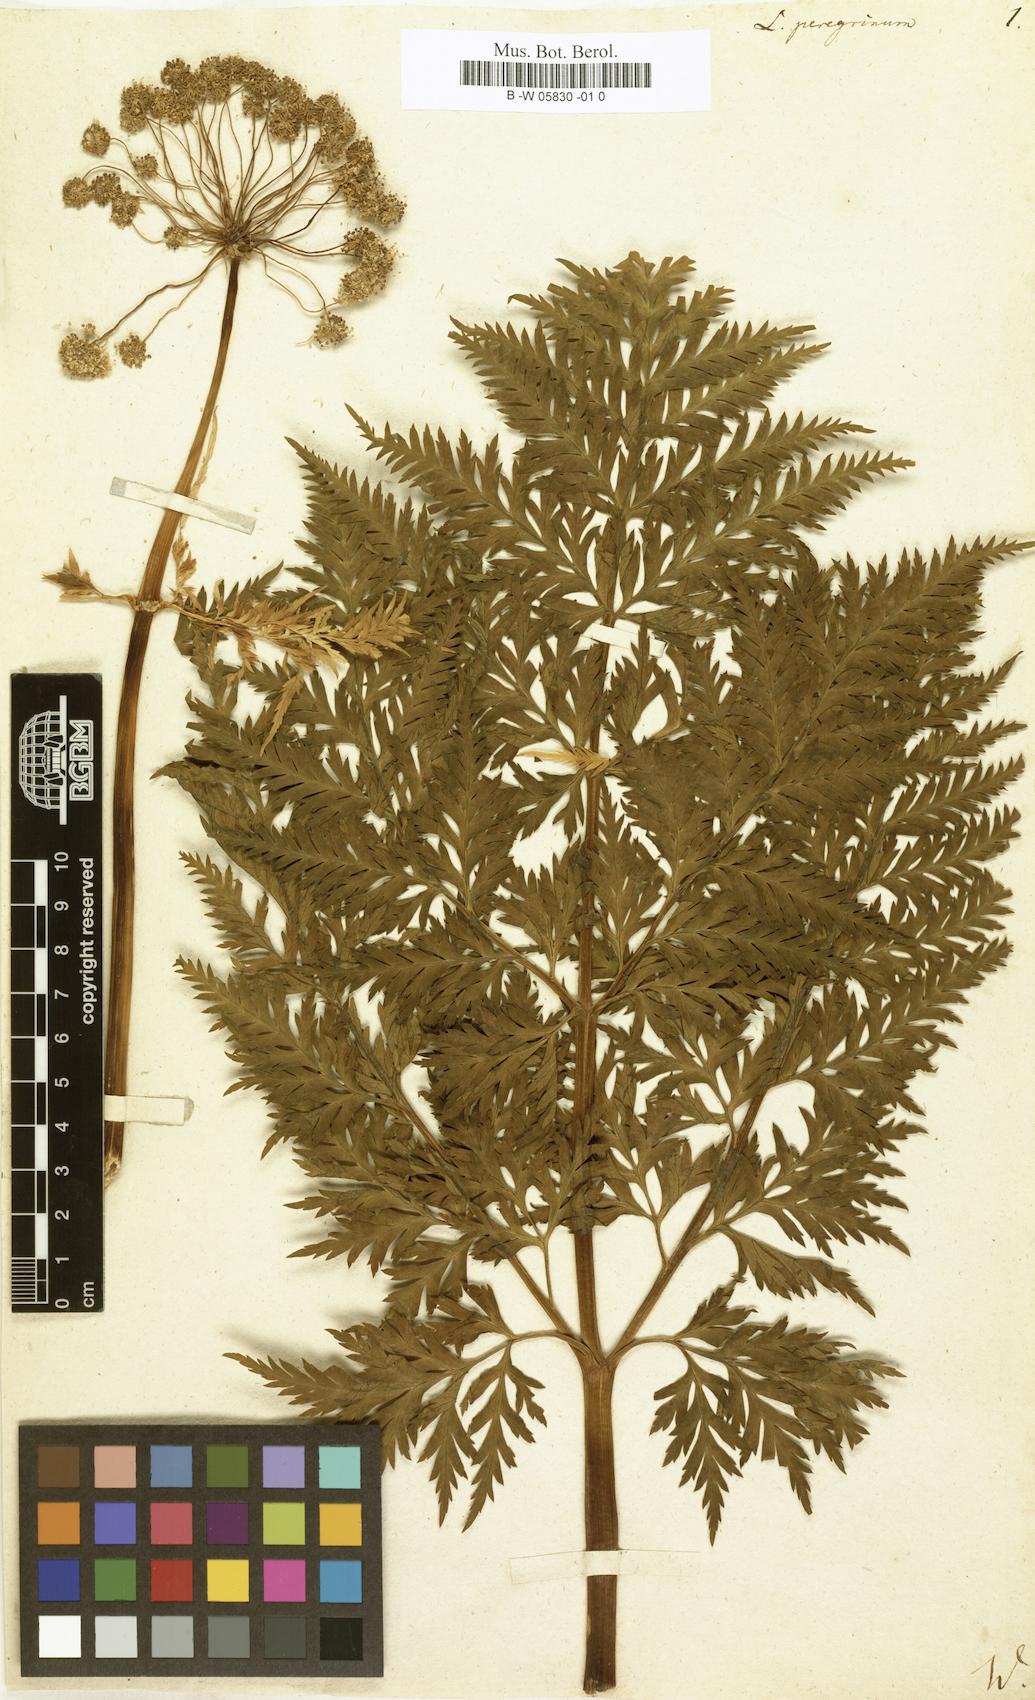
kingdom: Plantae
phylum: Tracheophyta
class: Magnoliopsida
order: Apiales
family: Apiaceae
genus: Petroselinum
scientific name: Petroselinum crispum
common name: Parsley
